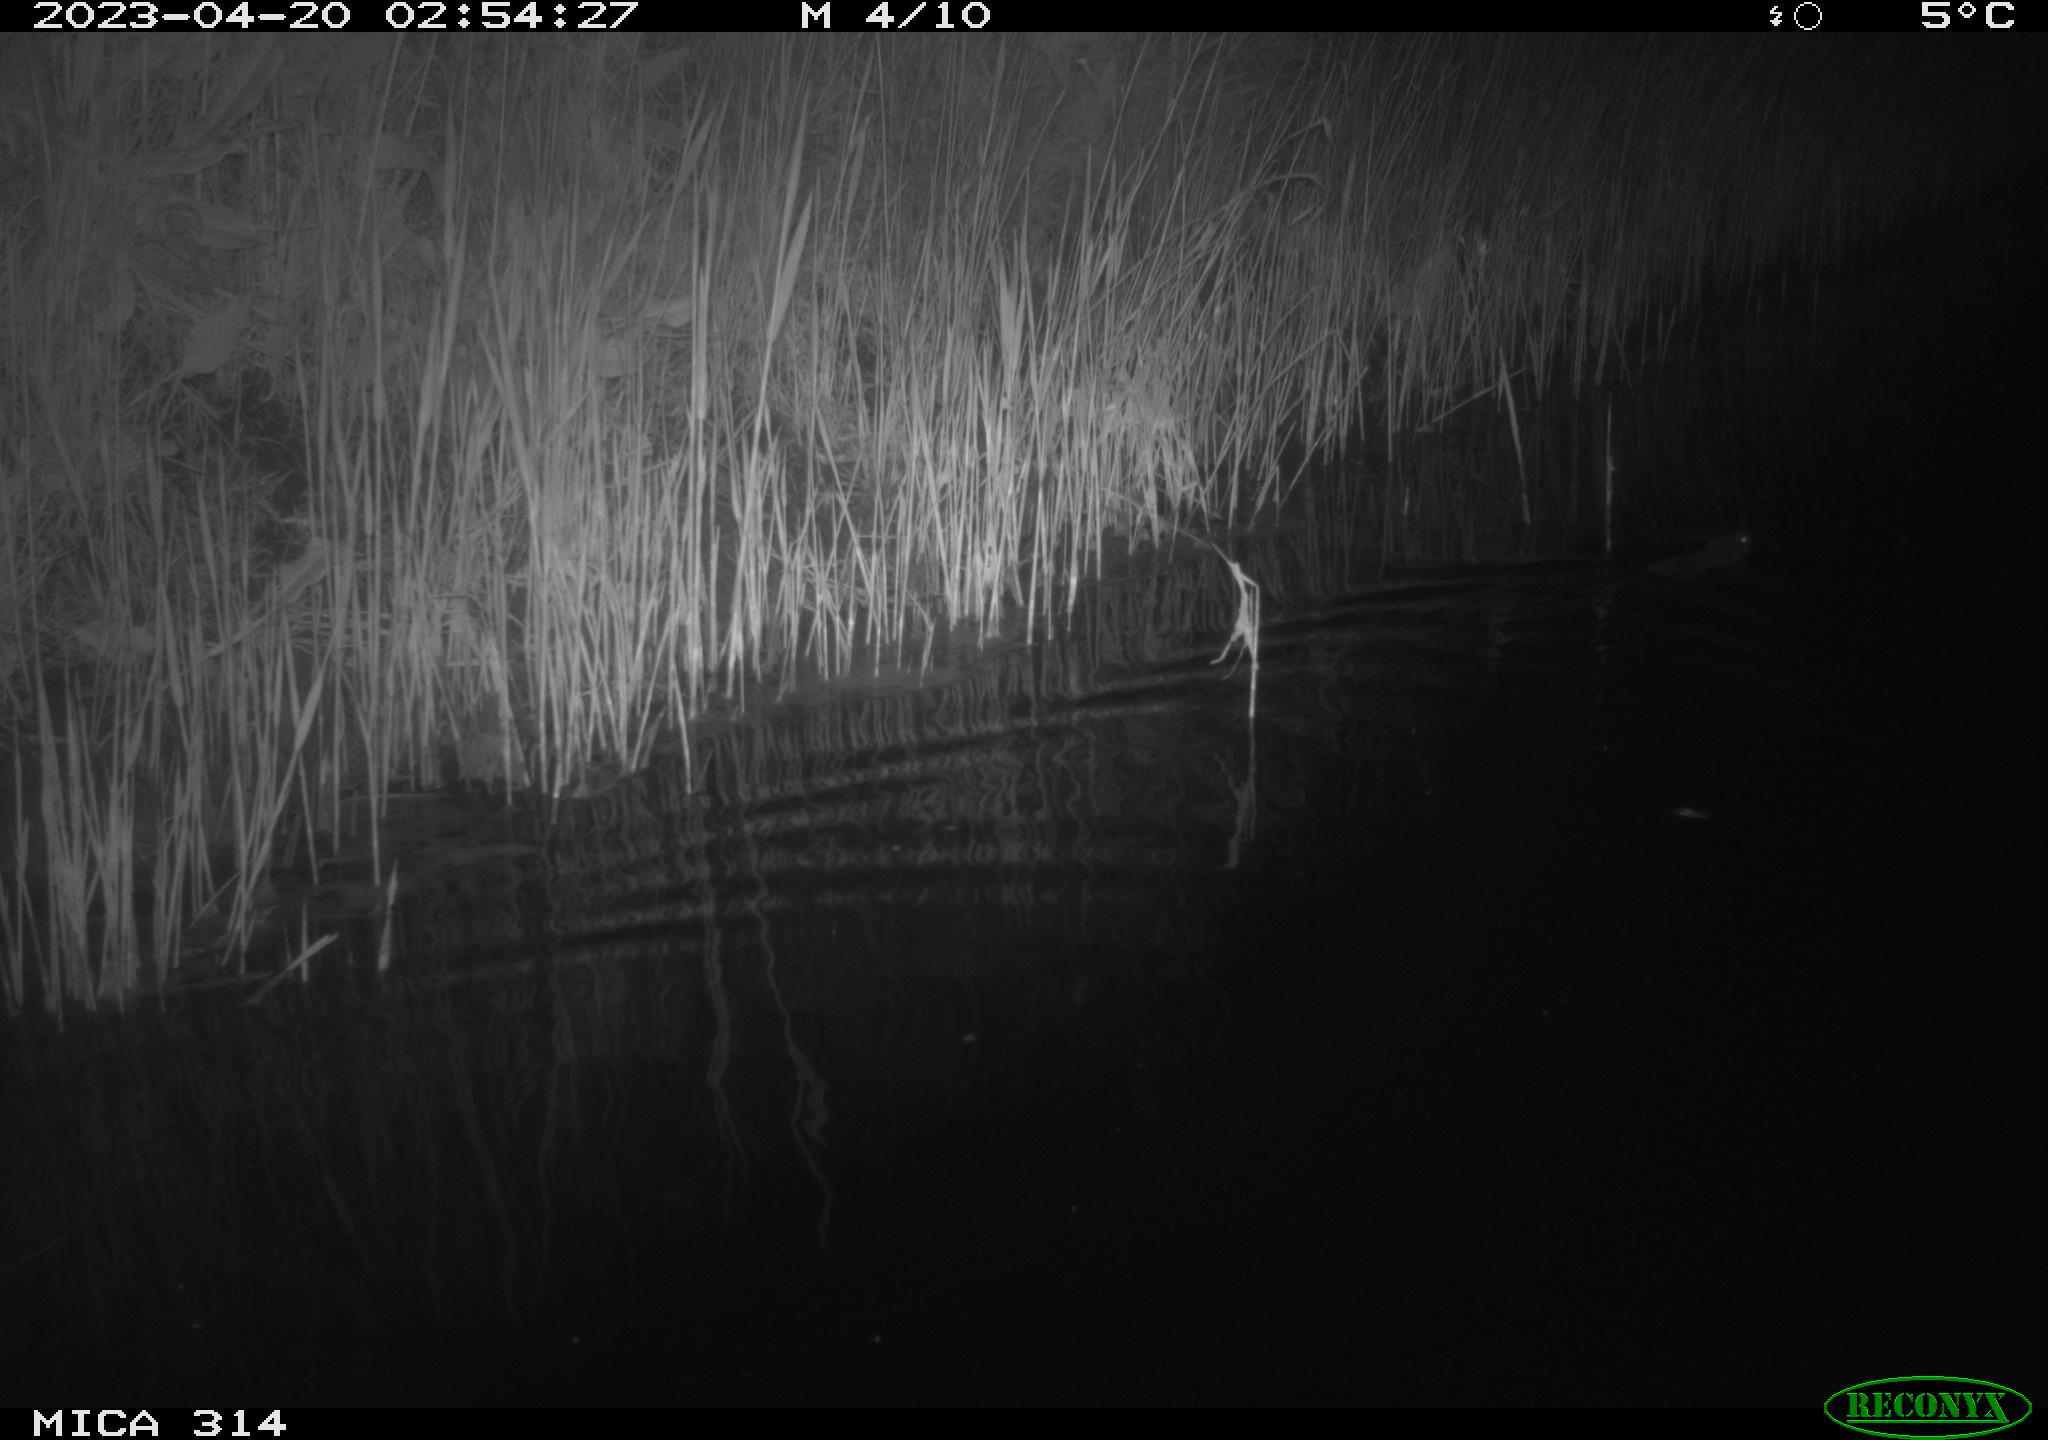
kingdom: Animalia
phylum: Chordata
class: Mammalia
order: Rodentia
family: Cricetidae
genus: Ondatra
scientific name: Ondatra zibethicus
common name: Muskrat
